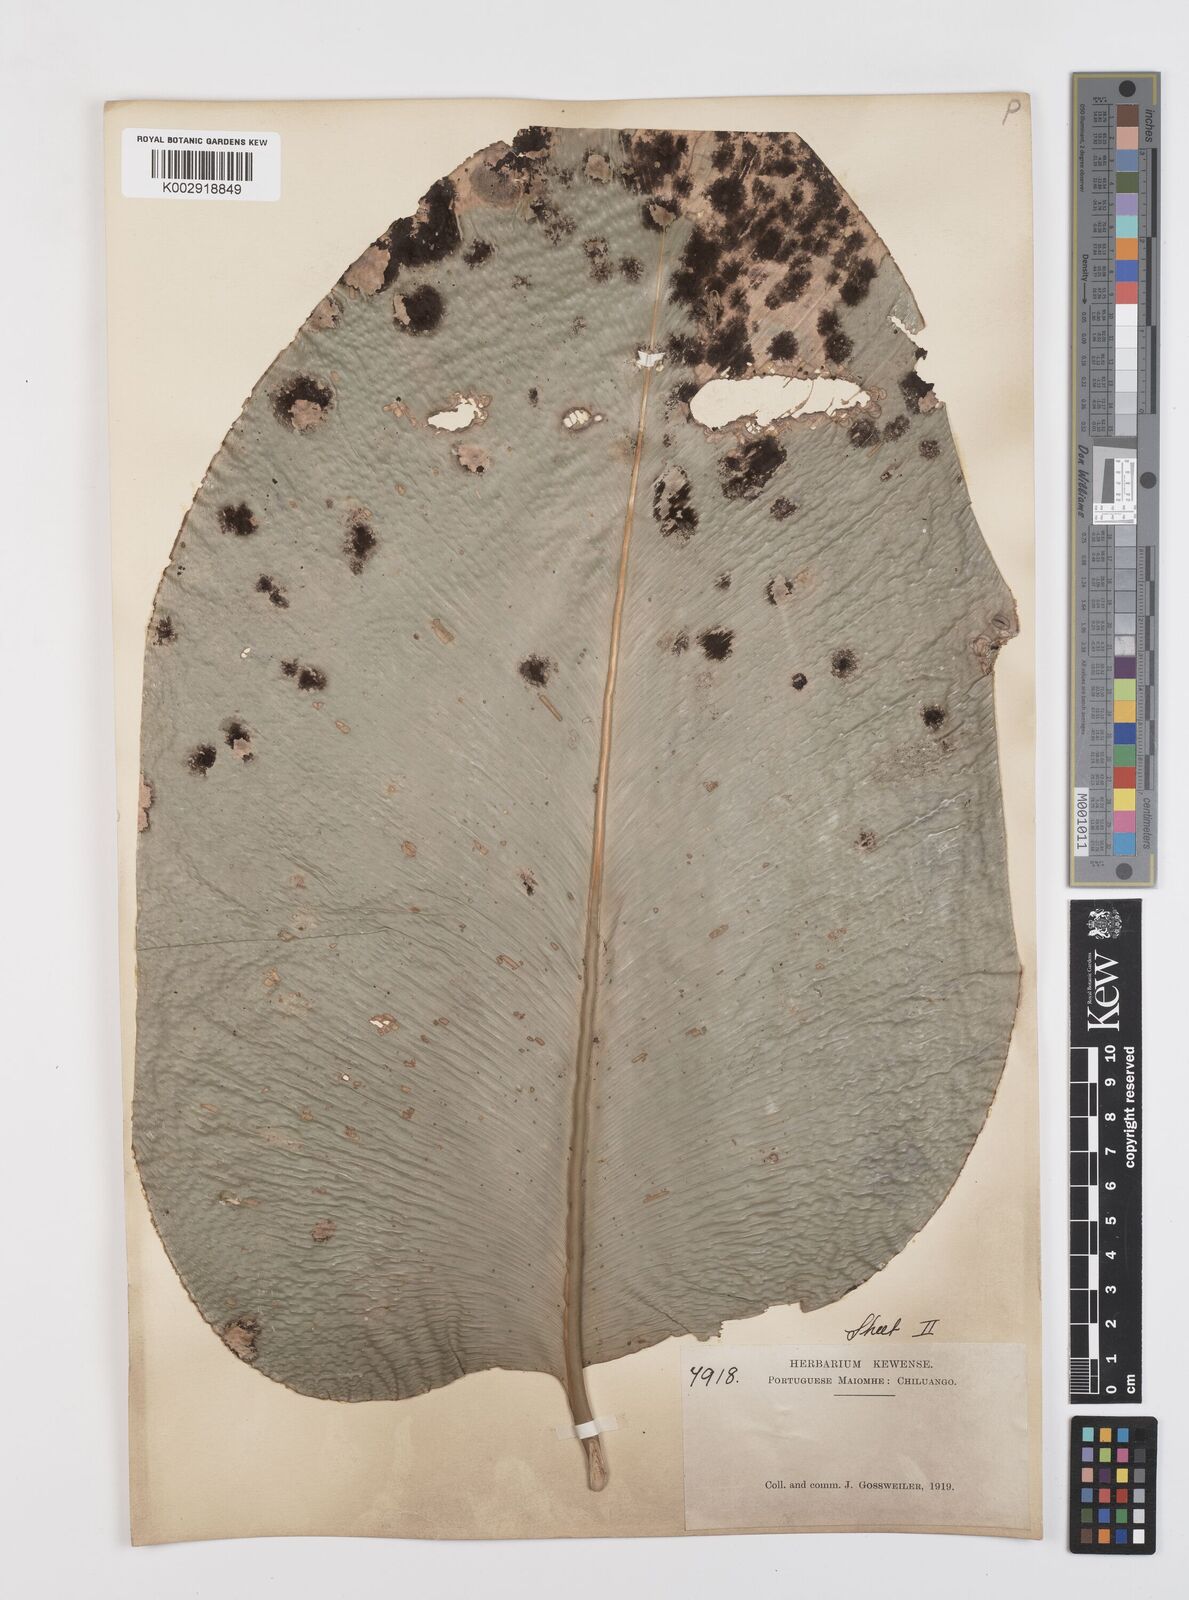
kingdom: Plantae
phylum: Tracheophyta
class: Liliopsida
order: Zingiberales
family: Marantaceae
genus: Thaumatococcus
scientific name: Thaumatococcus daniellii
